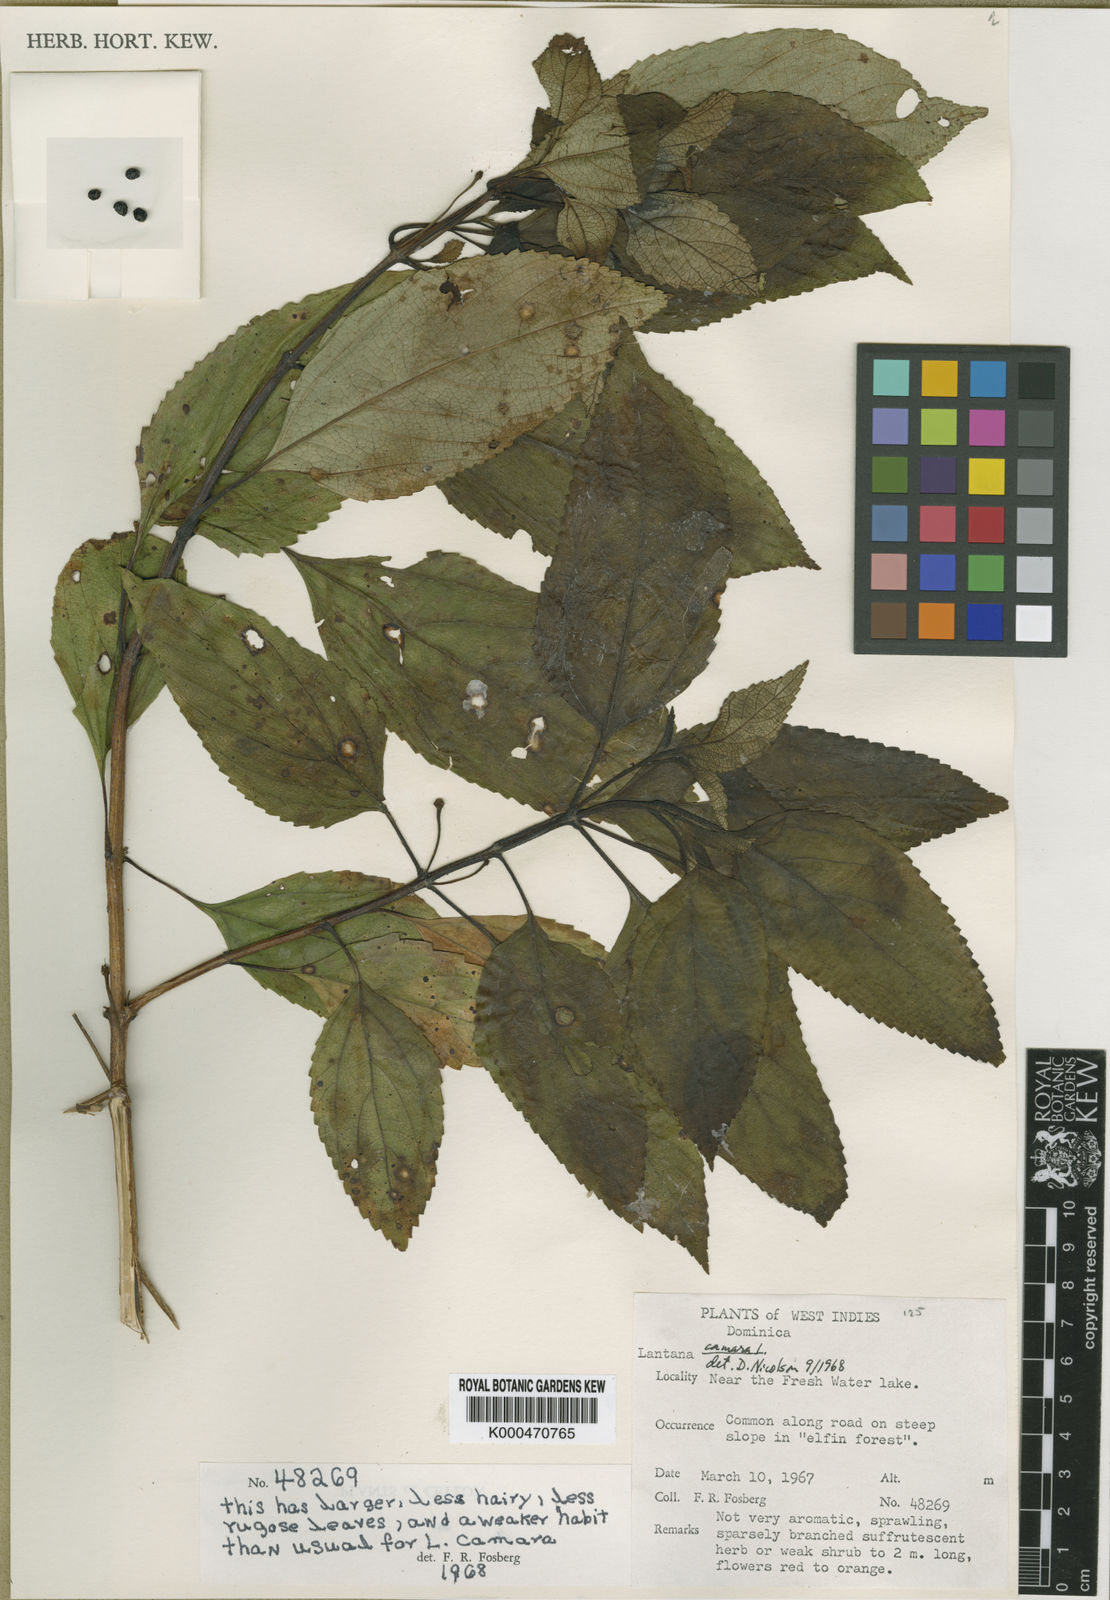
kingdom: Plantae
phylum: Tracheophyta
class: Magnoliopsida
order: Lamiales
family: Verbenaceae
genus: Lantana
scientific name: Lantana hodgei
